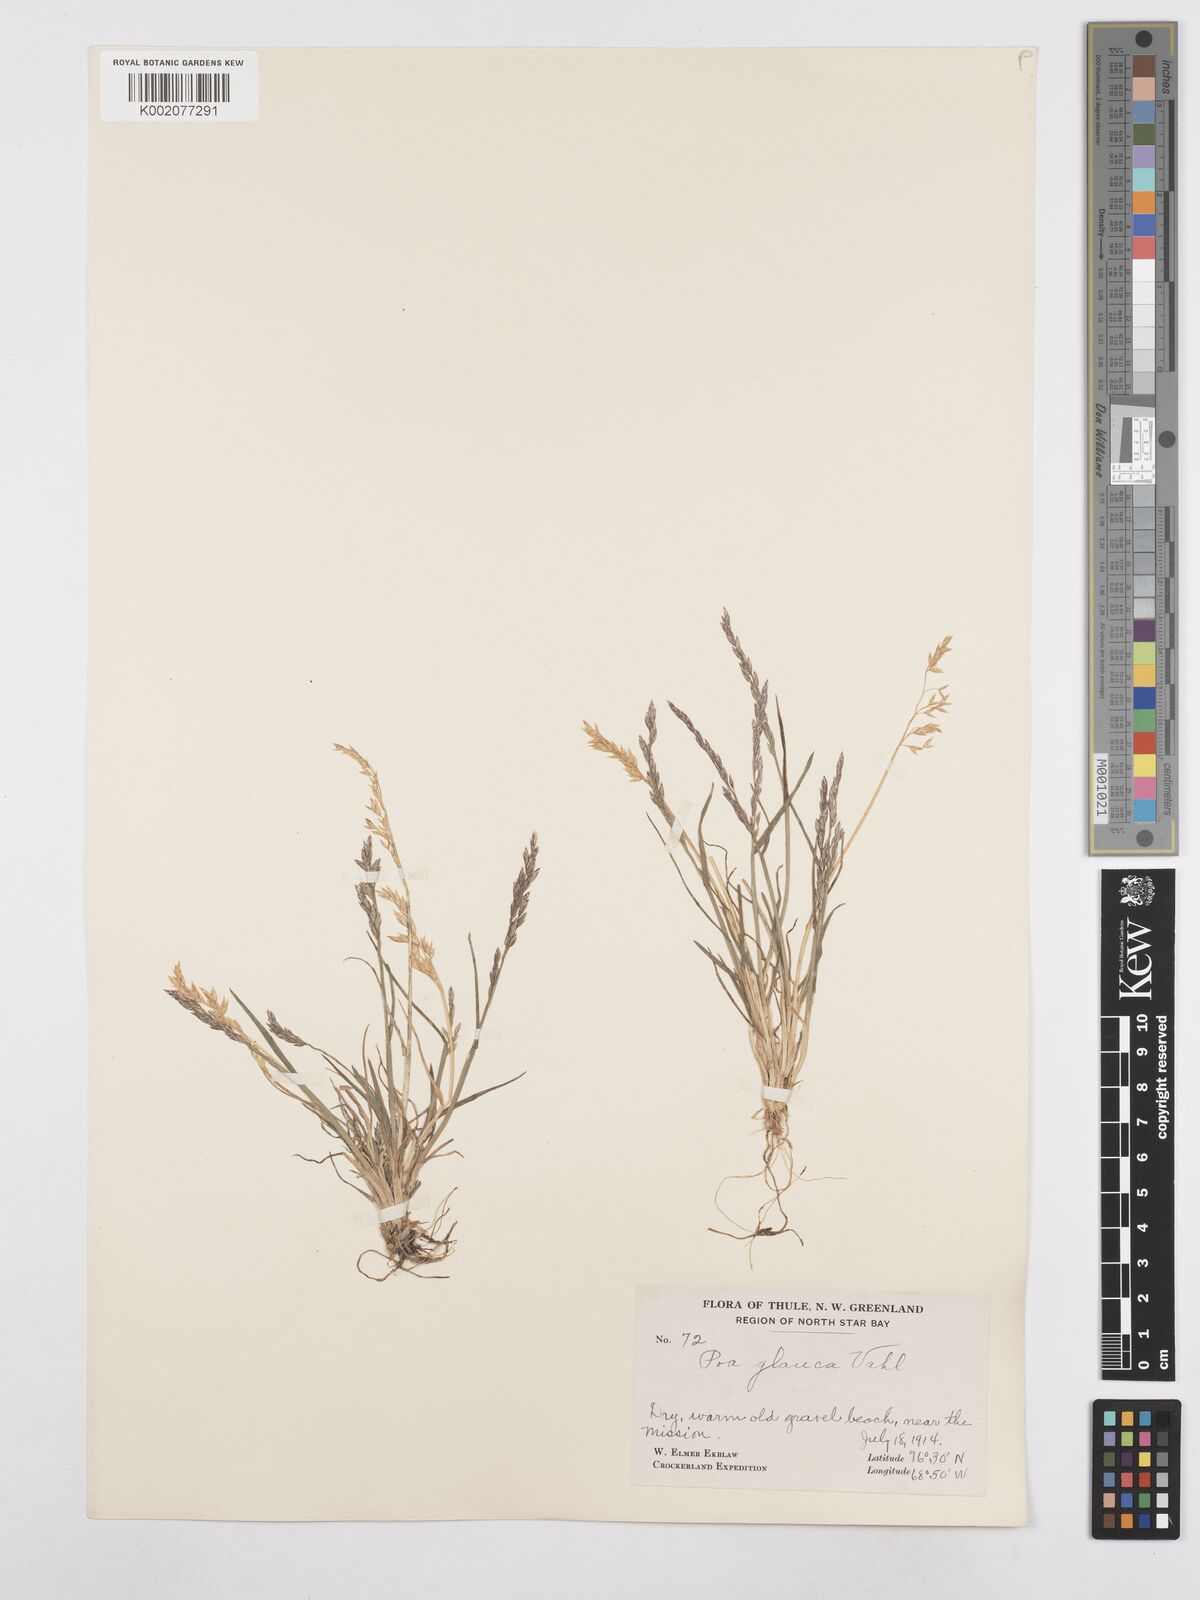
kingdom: Plantae
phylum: Tracheophyta
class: Liliopsida
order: Poales
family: Poaceae
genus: Poa
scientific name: Poa glauca
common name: Glaucous bluegrass
